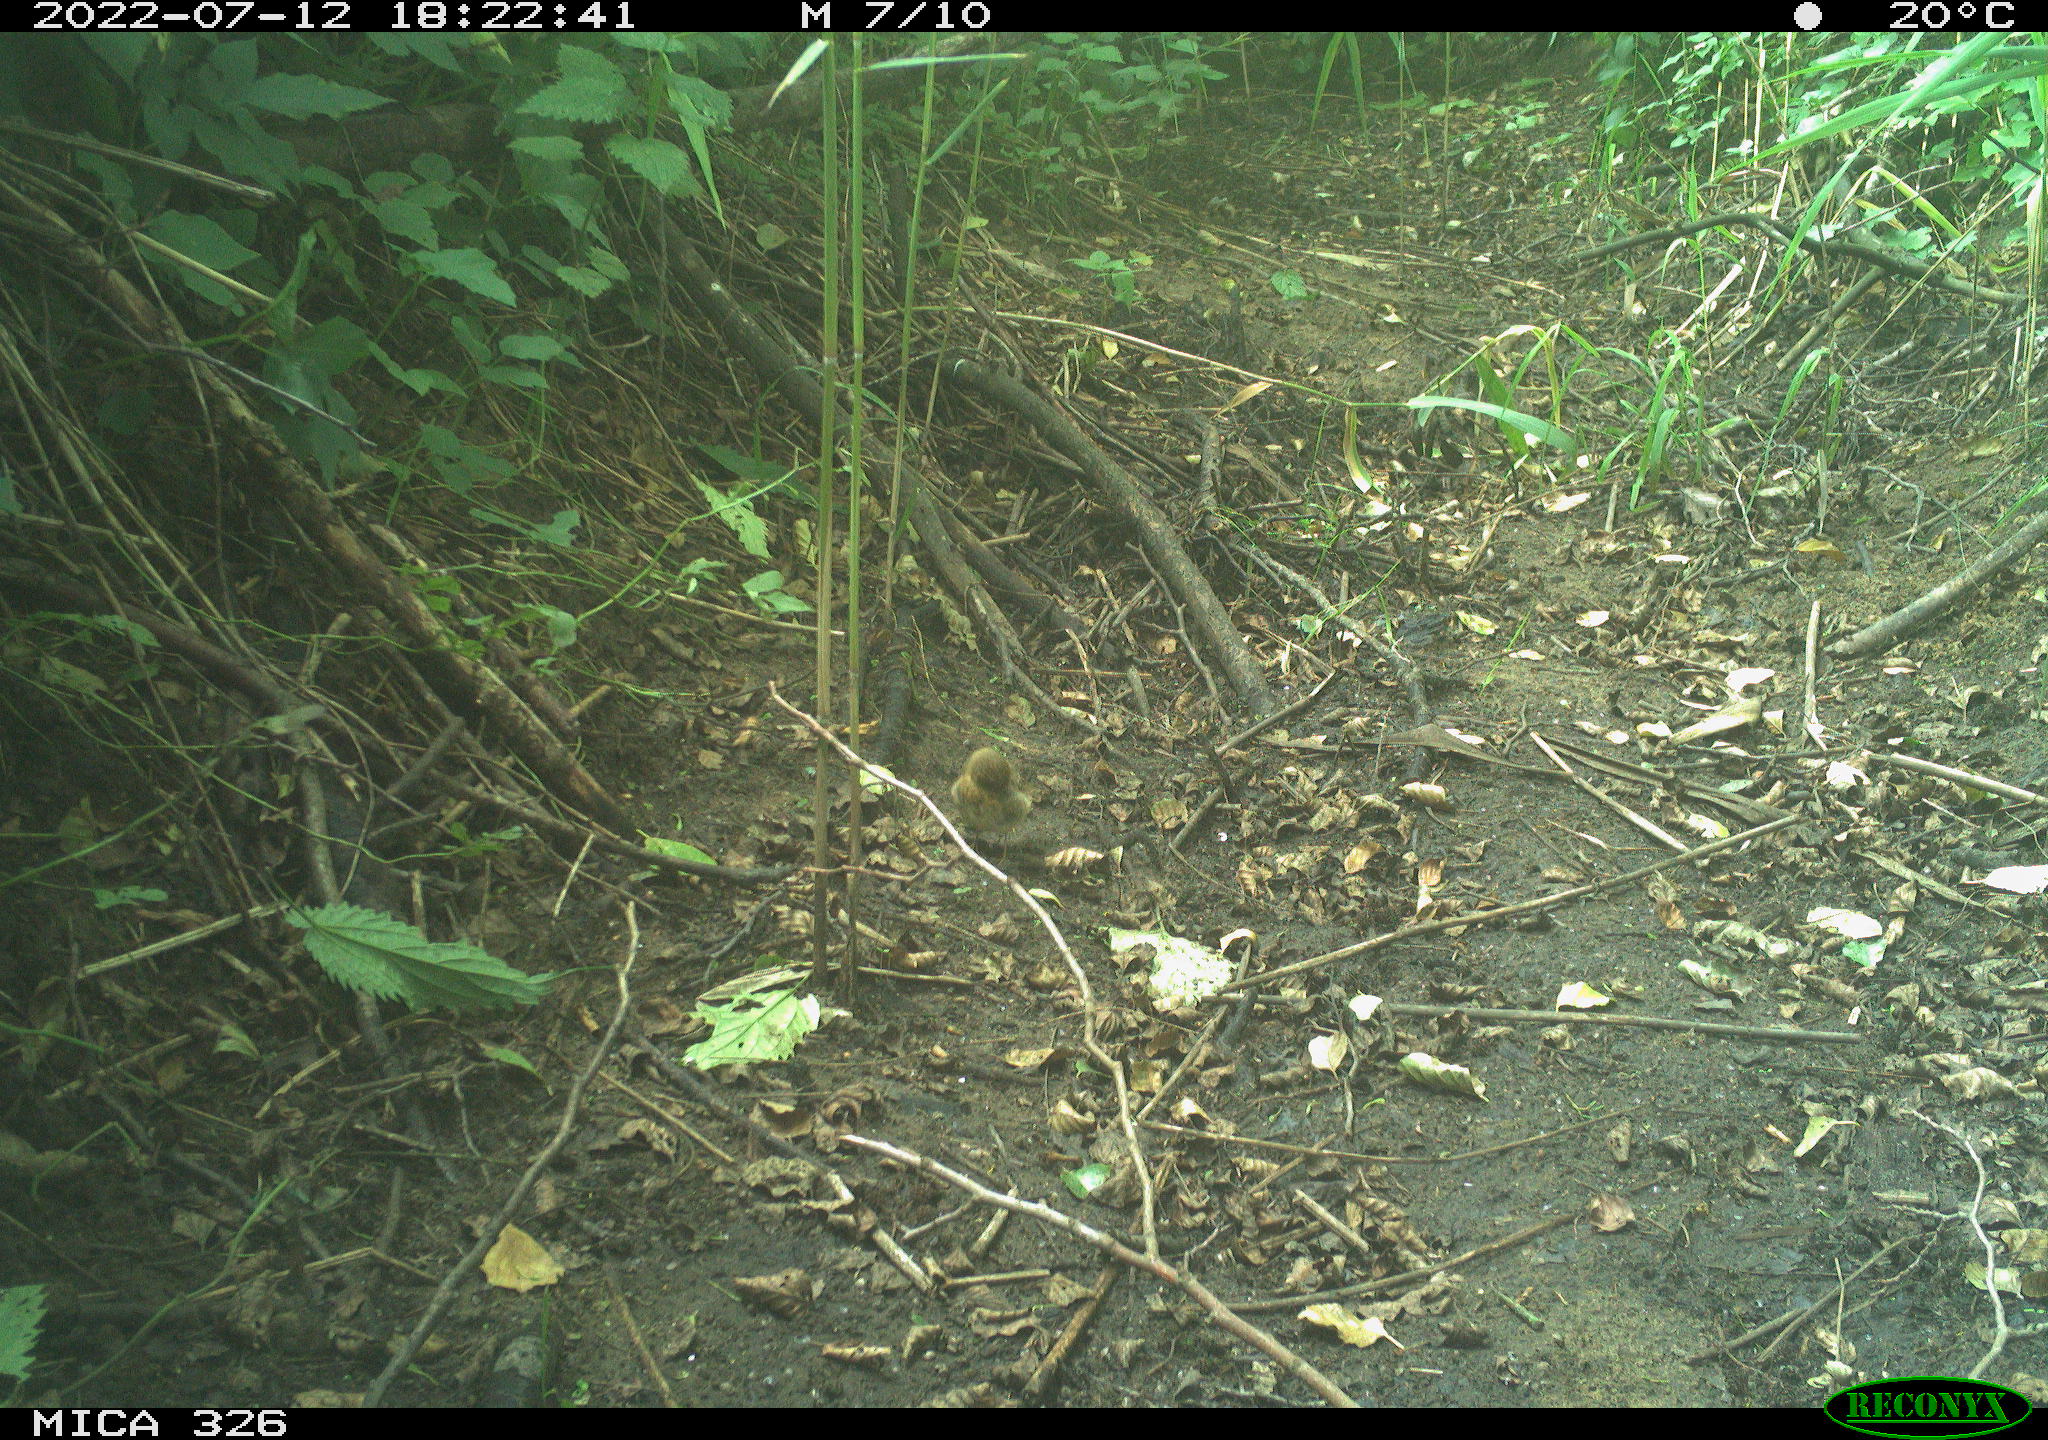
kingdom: Animalia
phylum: Chordata
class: Aves
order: Passeriformes
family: Troglodytidae
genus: Troglodytes
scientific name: Troglodytes troglodytes
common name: Eurasian wren
